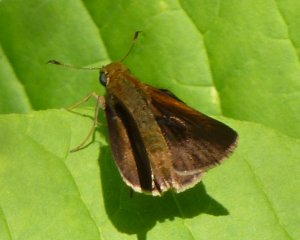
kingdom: Animalia
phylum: Arthropoda
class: Insecta
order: Lepidoptera
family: Hesperiidae
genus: Euphyes
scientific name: Euphyes vestris
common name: Dun Skipper
